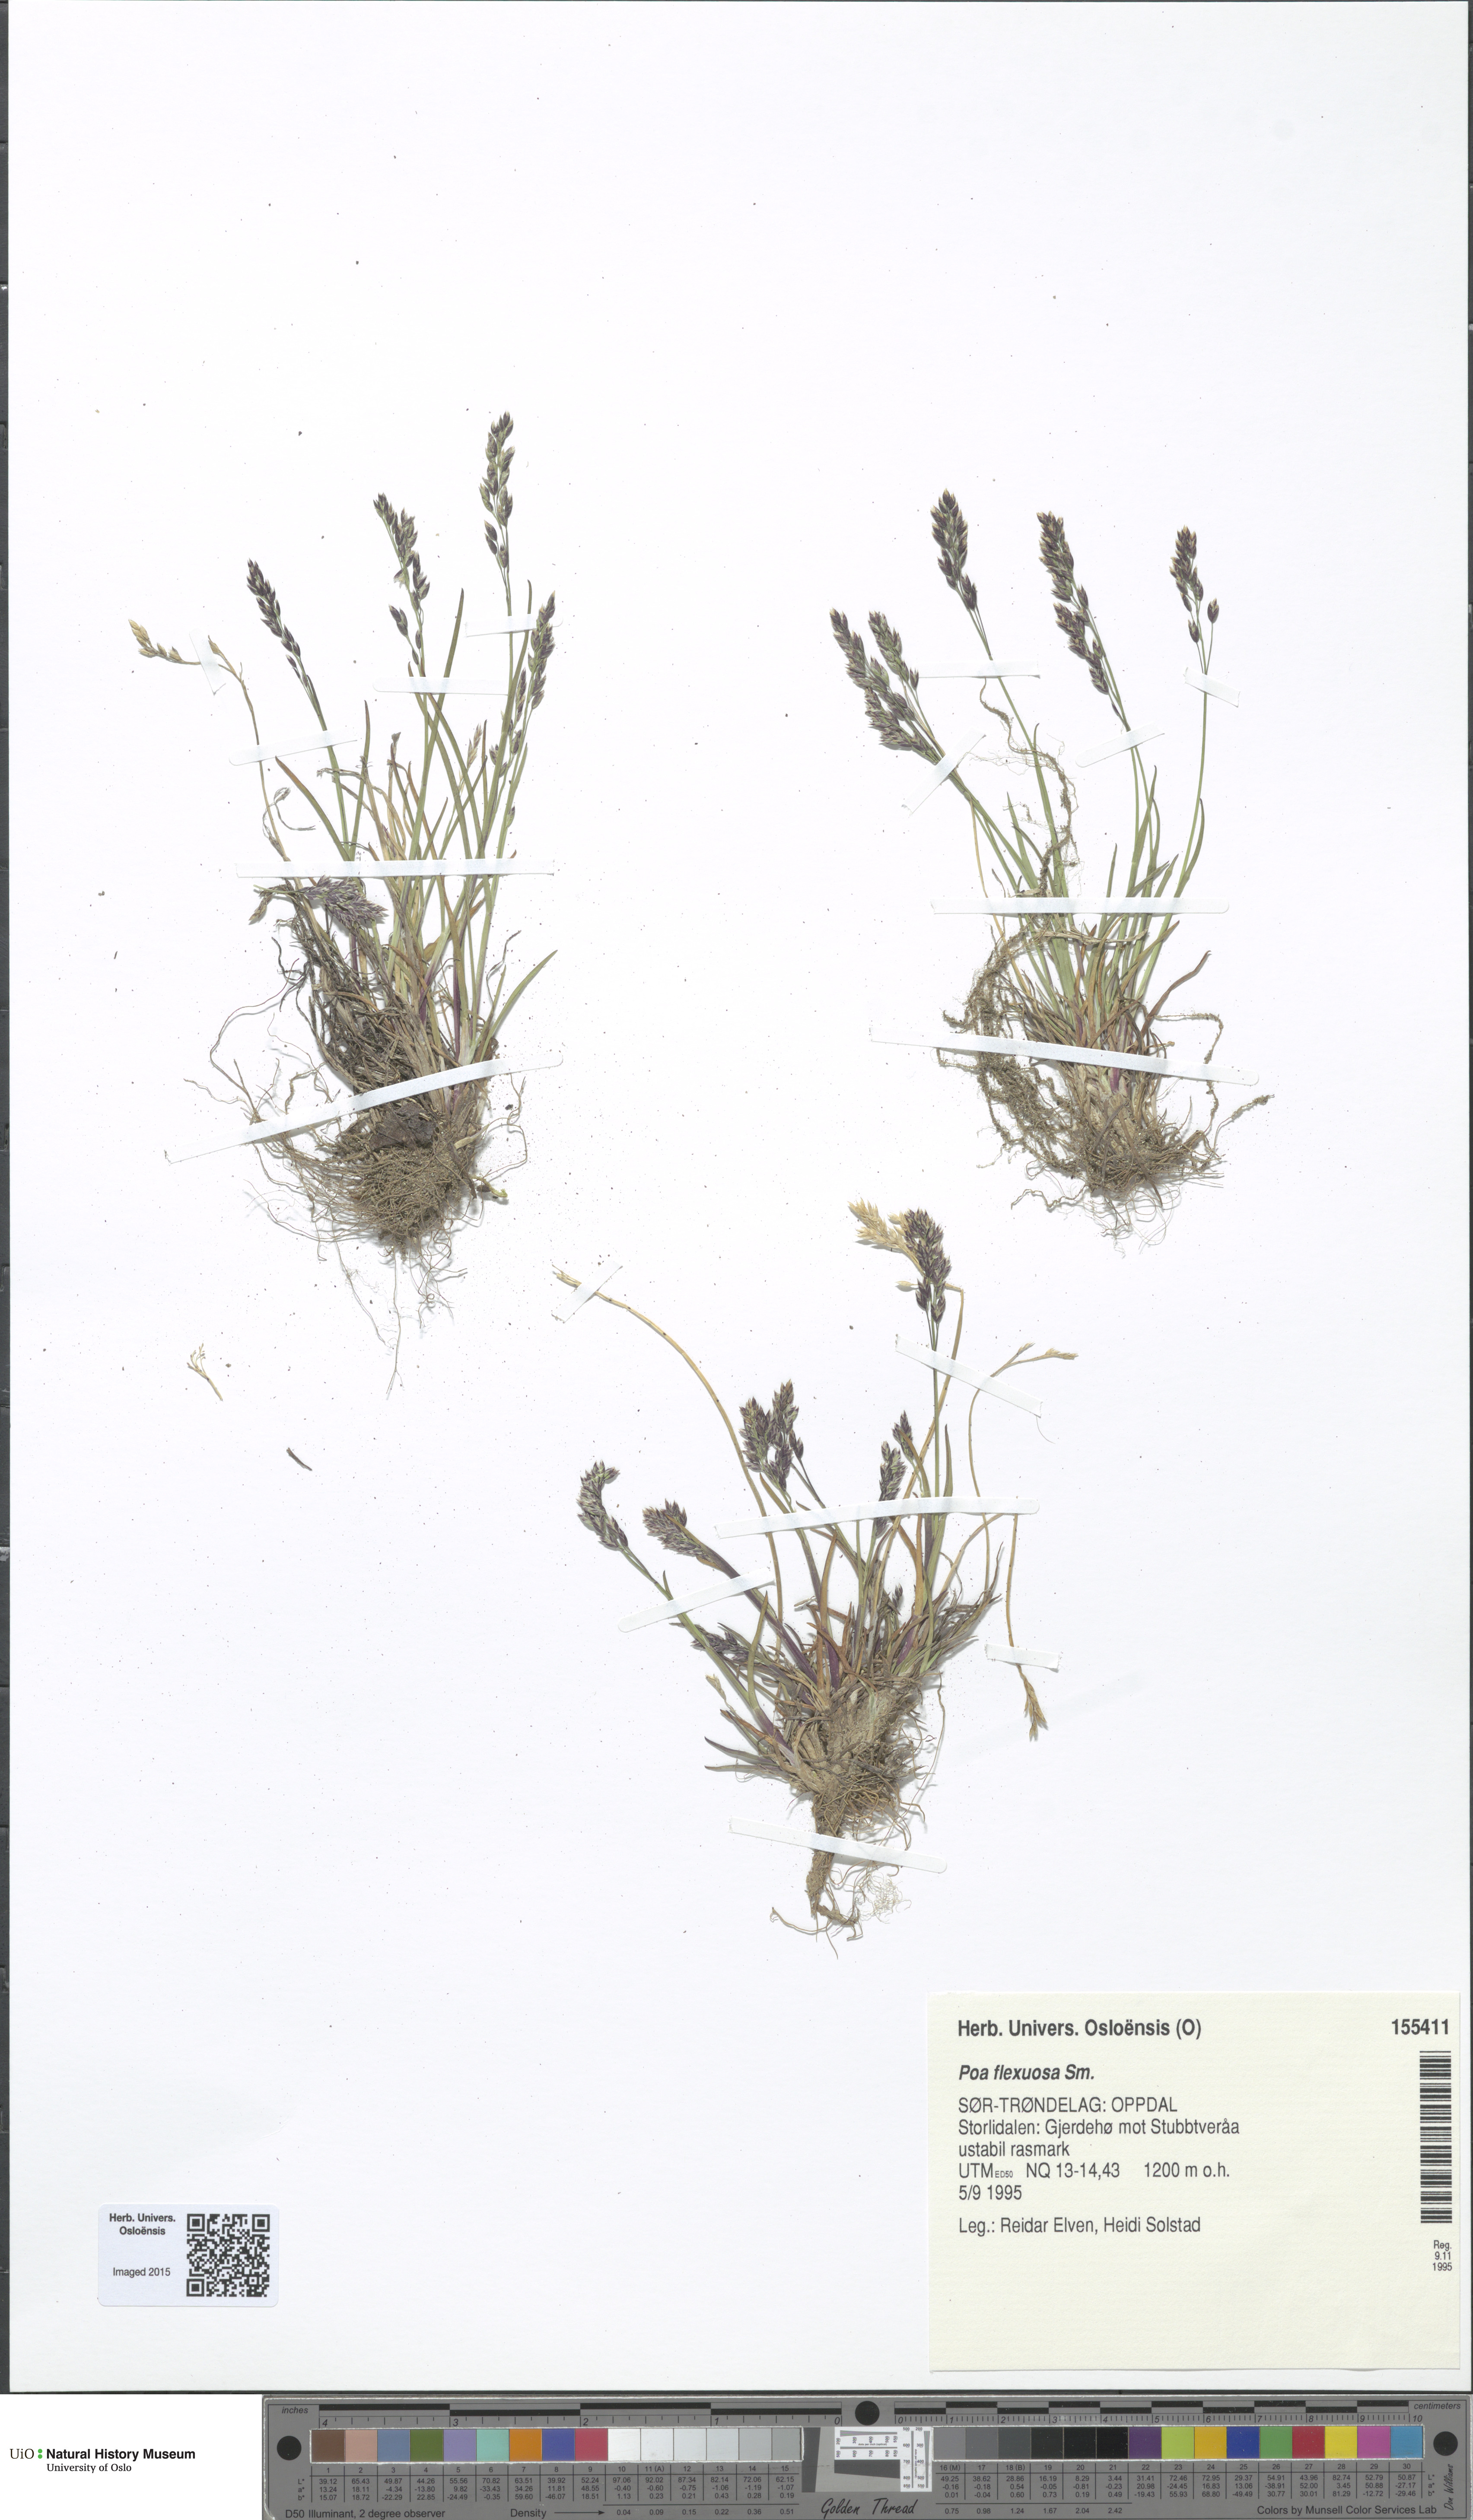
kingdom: Plantae
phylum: Tracheophyta
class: Liliopsida
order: Poales
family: Poaceae
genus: Poa
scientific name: Poa flexuosa
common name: Wavy meadow-grass
